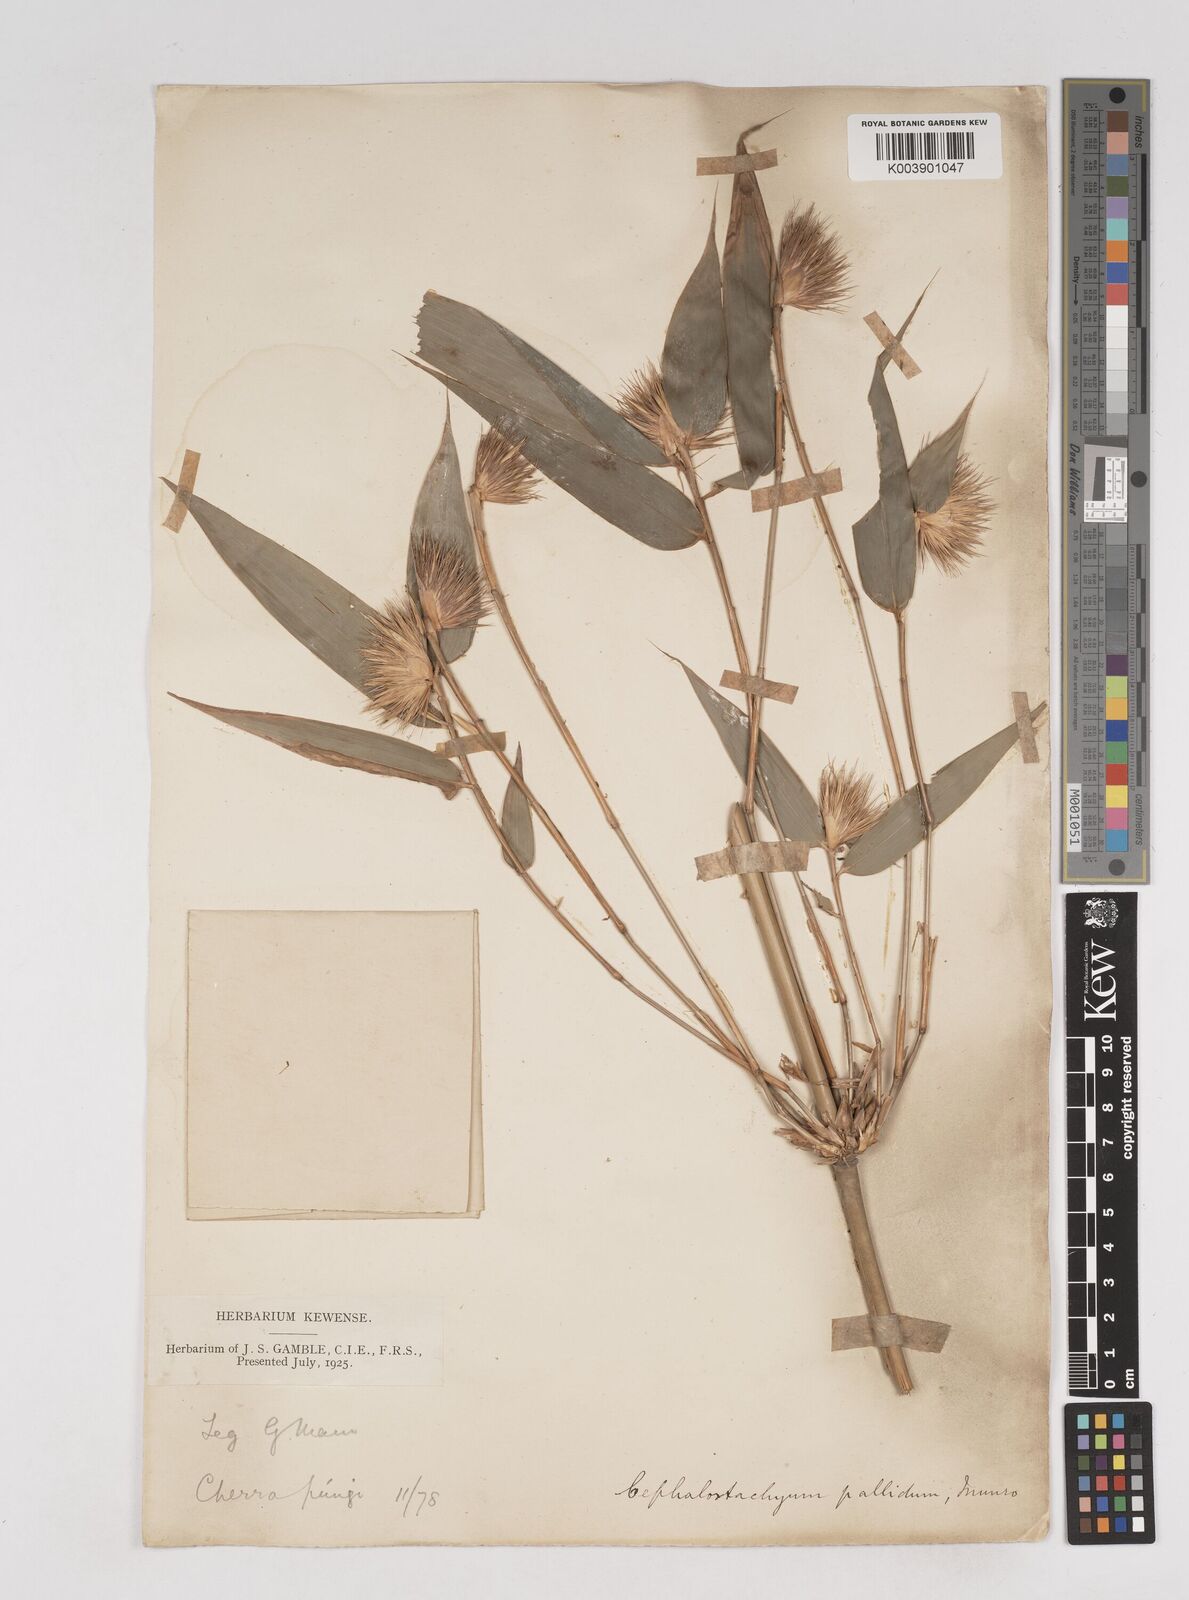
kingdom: Plantae
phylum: Tracheophyta
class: Liliopsida
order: Poales
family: Poaceae
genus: Cephalostachyum
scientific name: Cephalostachyum pallidum
